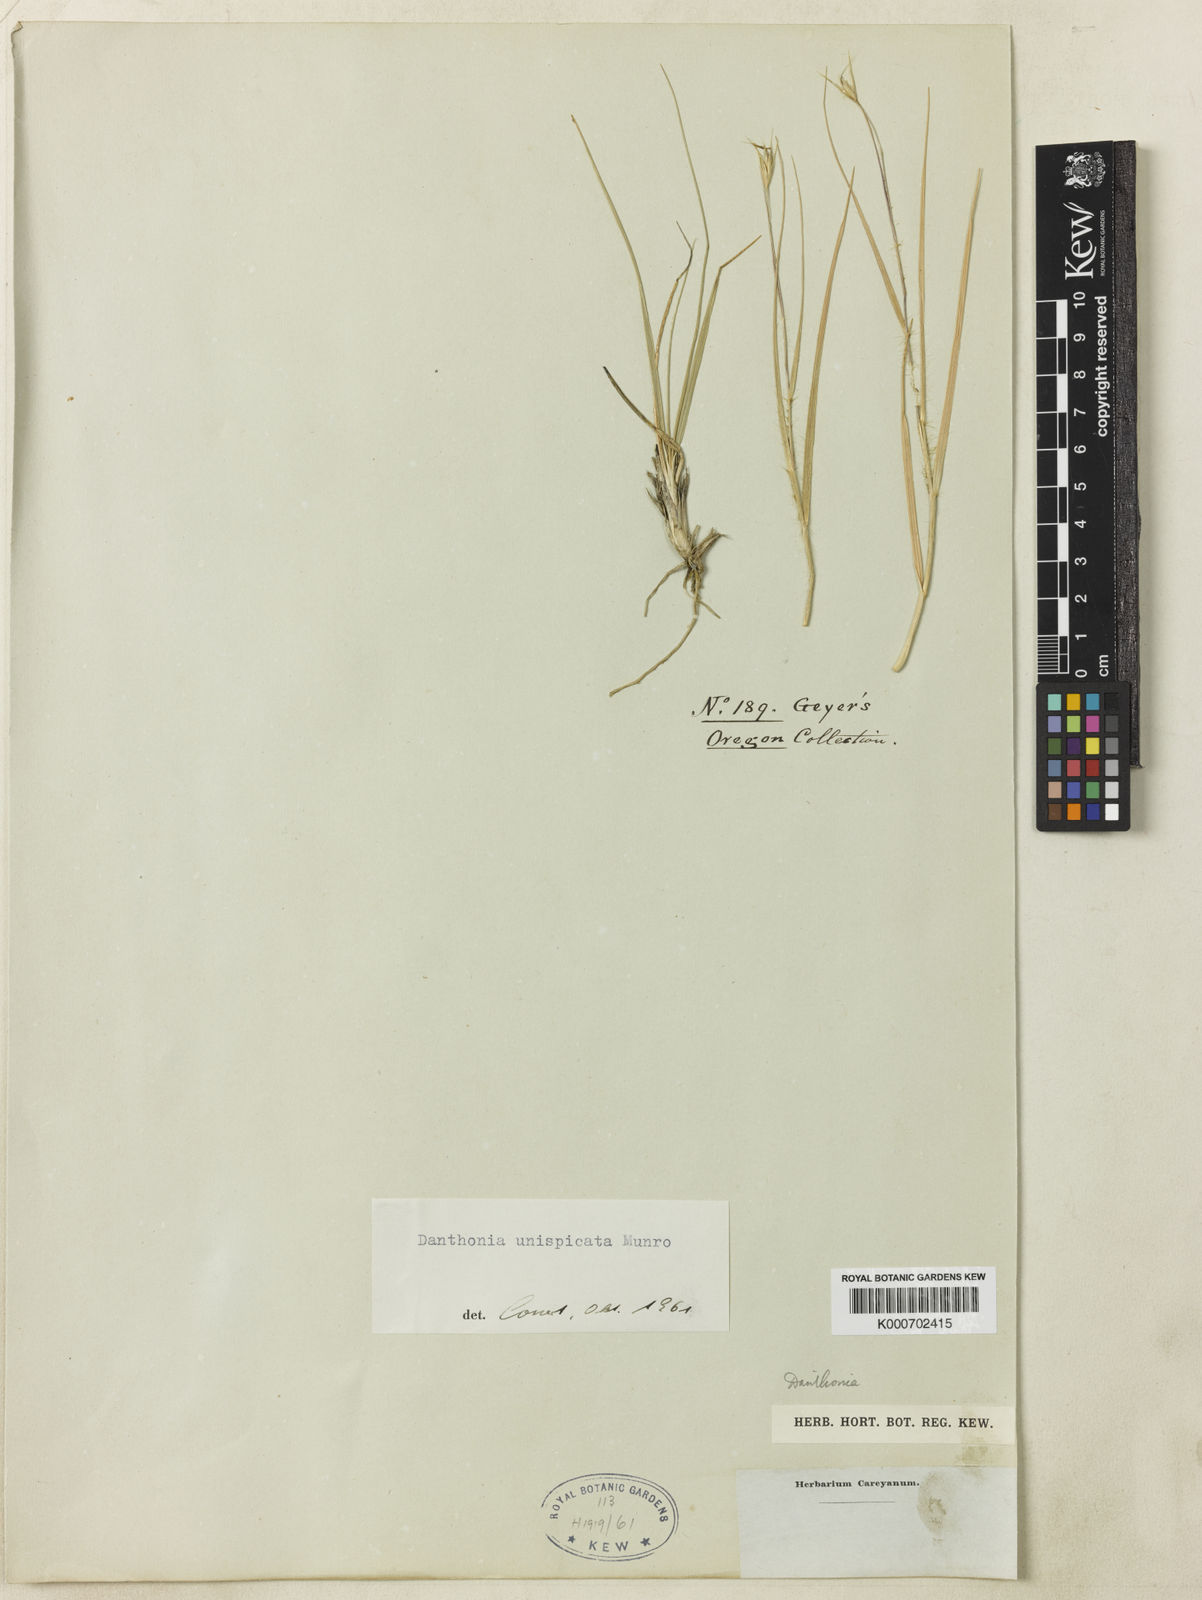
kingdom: Plantae
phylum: Tracheophyta
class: Liliopsida
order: Poales
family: Poaceae
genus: Danthonia
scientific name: Danthonia unispicata
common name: Few-flowered oatgrass
